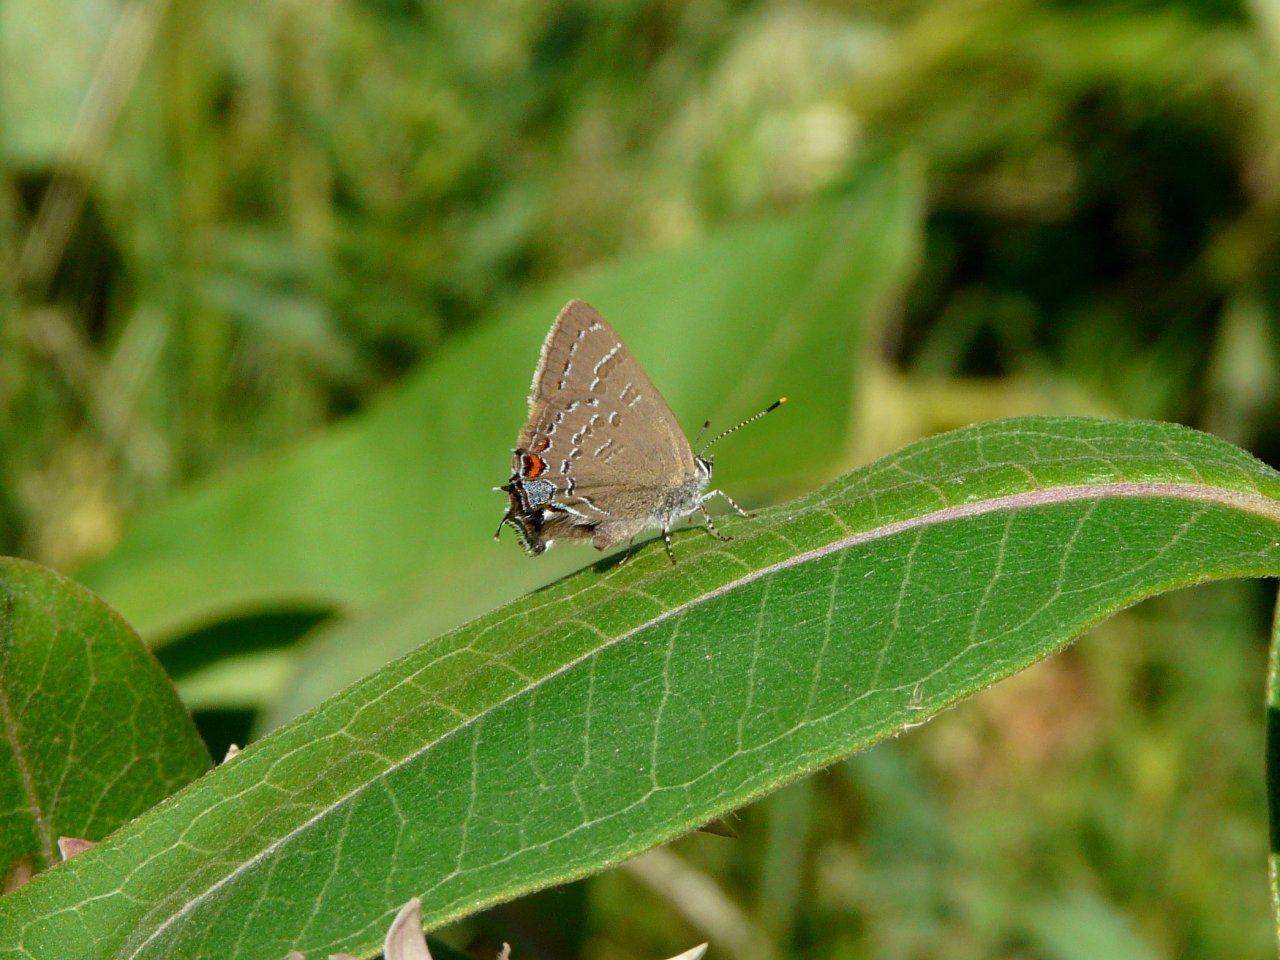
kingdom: Animalia
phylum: Arthropoda
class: Insecta
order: Lepidoptera
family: Lycaenidae
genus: Satyrium
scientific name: Satyrium calanus
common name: Banded Hairstreak
